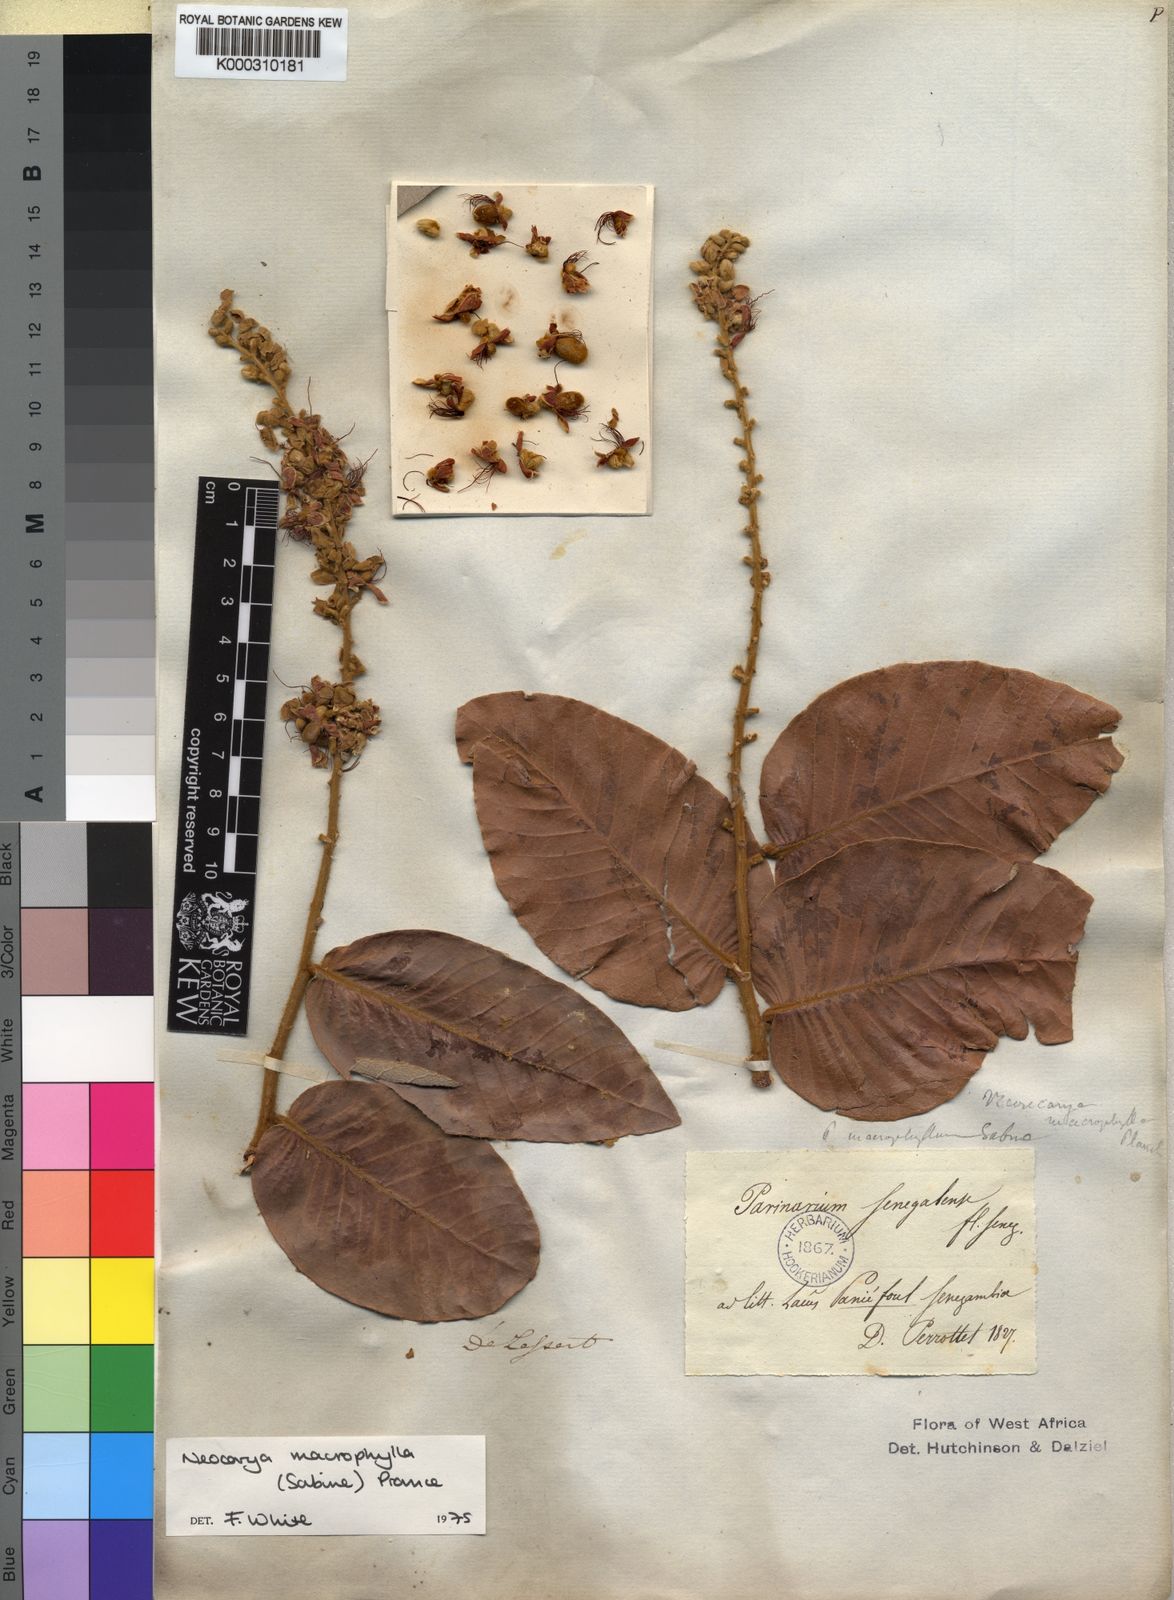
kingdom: Plantae
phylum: Tracheophyta
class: Magnoliopsida
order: Malpighiales
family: Chrysobalanaceae
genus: Neocarya
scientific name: Neocarya
